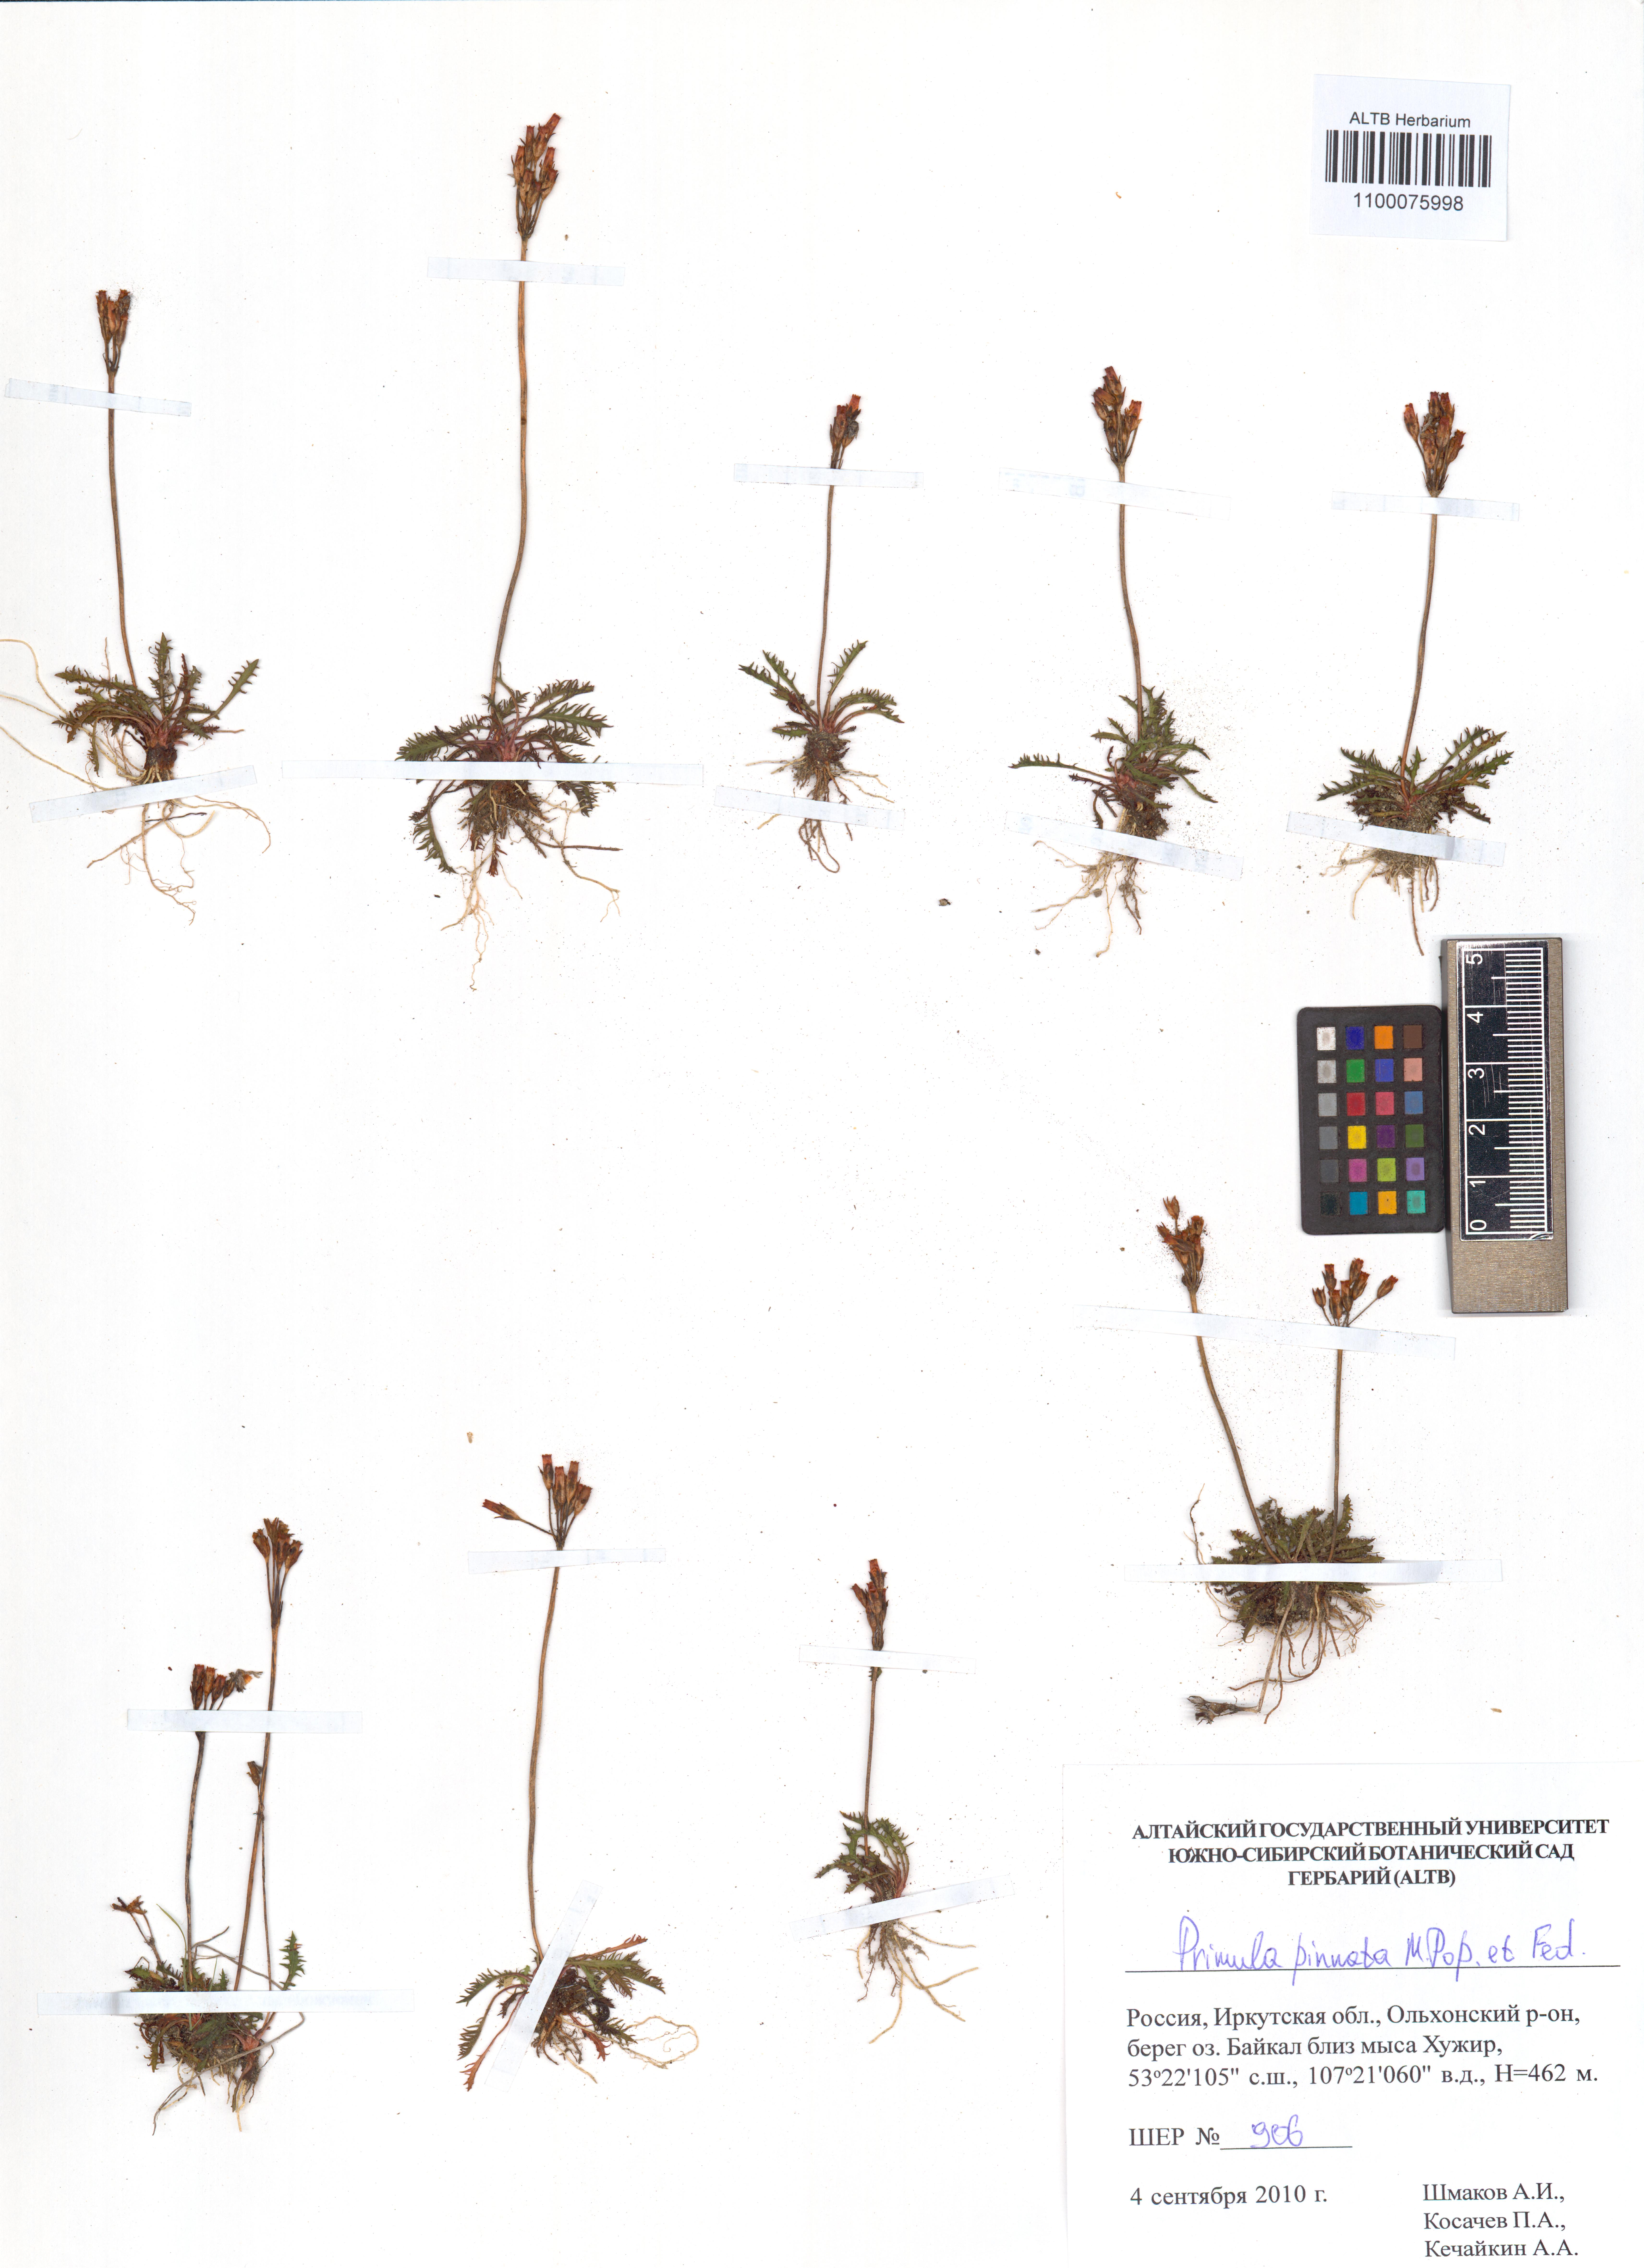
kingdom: Plantae
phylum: Tracheophyta
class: Magnoliopsida
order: Ericales
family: Primulaceae
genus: Primula
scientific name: Primula pinnata
